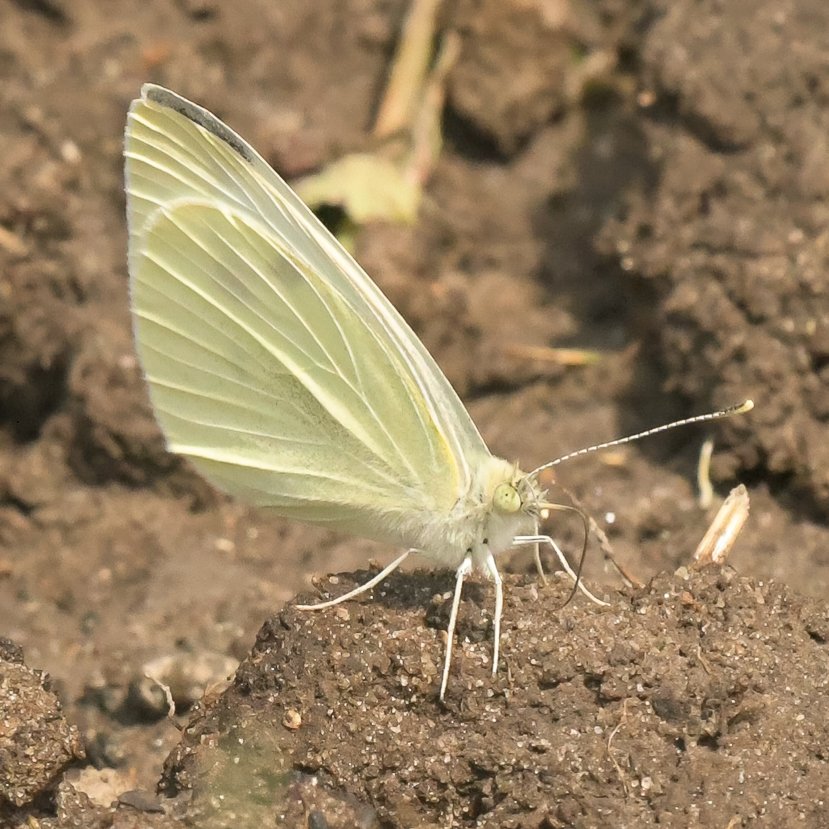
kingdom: Animalia
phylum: Arthropoda
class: Insecta
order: Lepidoptera
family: Pieridae
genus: Pieris
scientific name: Pieris rapae
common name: Cabbage White
